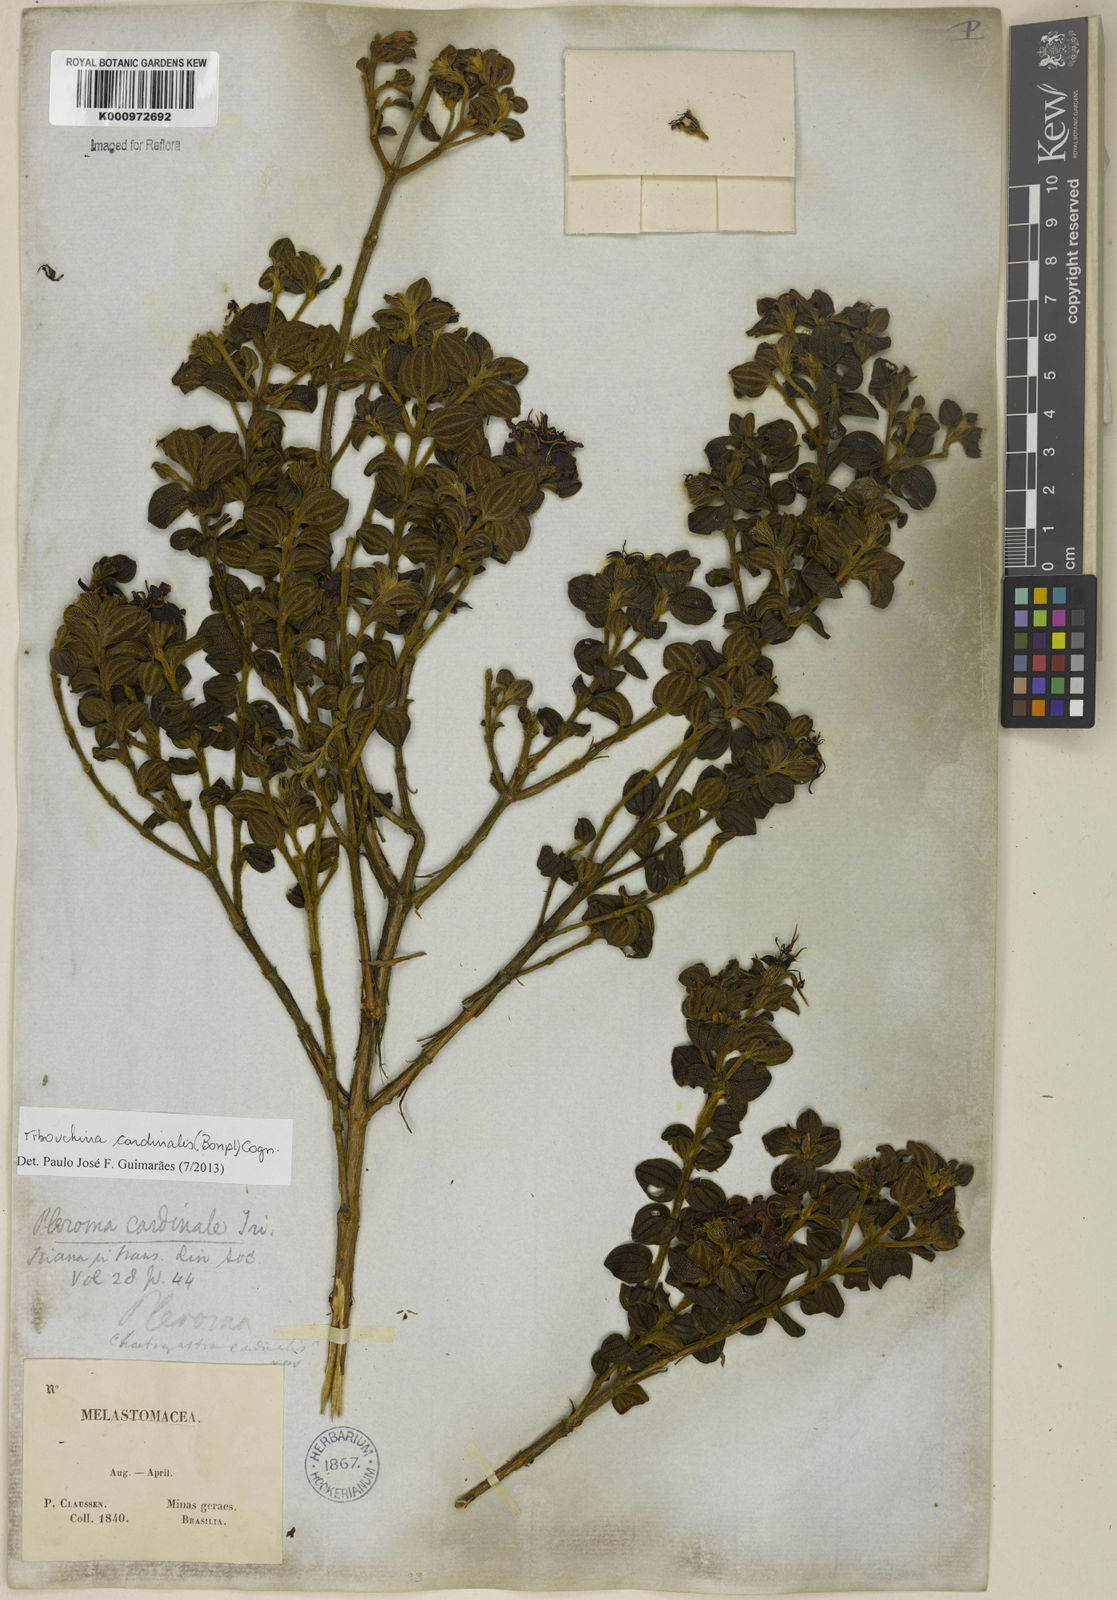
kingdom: Plantae
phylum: Tracheophyta
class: Magnoliopsida
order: Myrtales
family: Melastomataceae
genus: Chaetogastra
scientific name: Chaetogastra cardinalis
